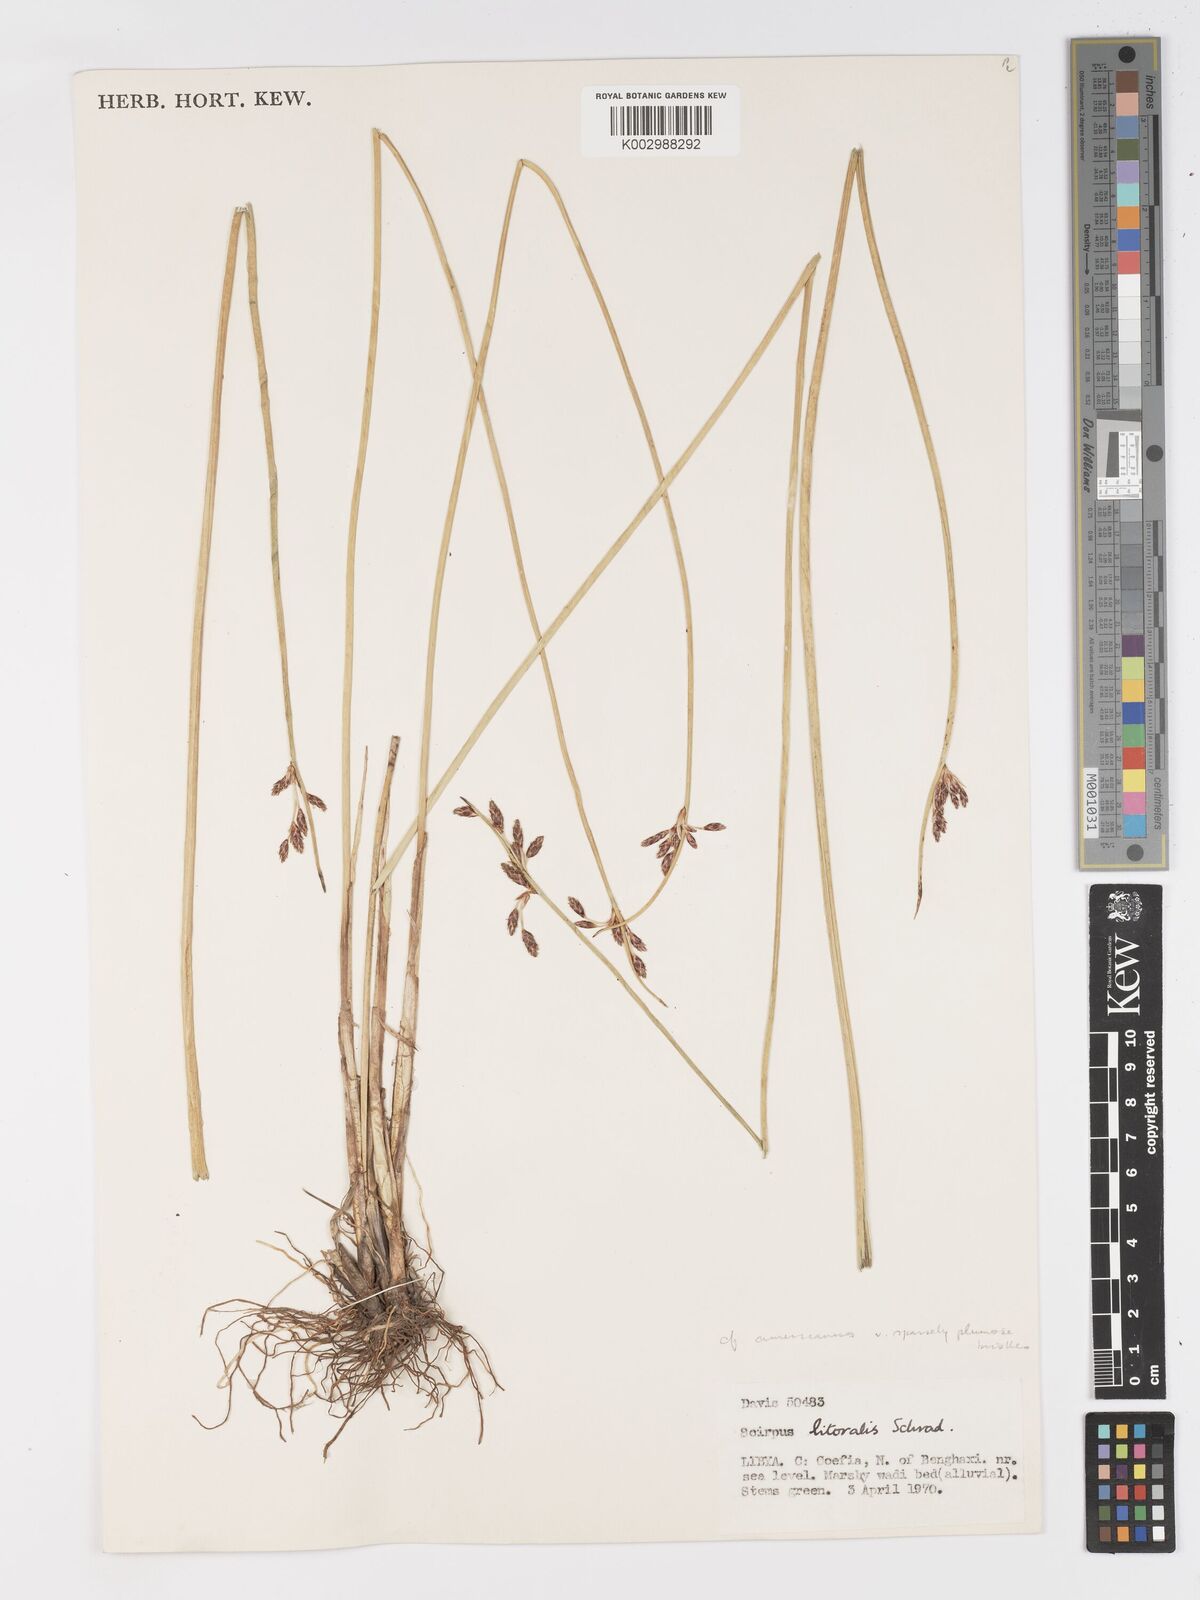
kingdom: Plantae
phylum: Tracheophyta
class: Liliopsida
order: Poales
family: Cyperaceae
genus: Schoenoplectus
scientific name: Schoenoplectus litoralis
